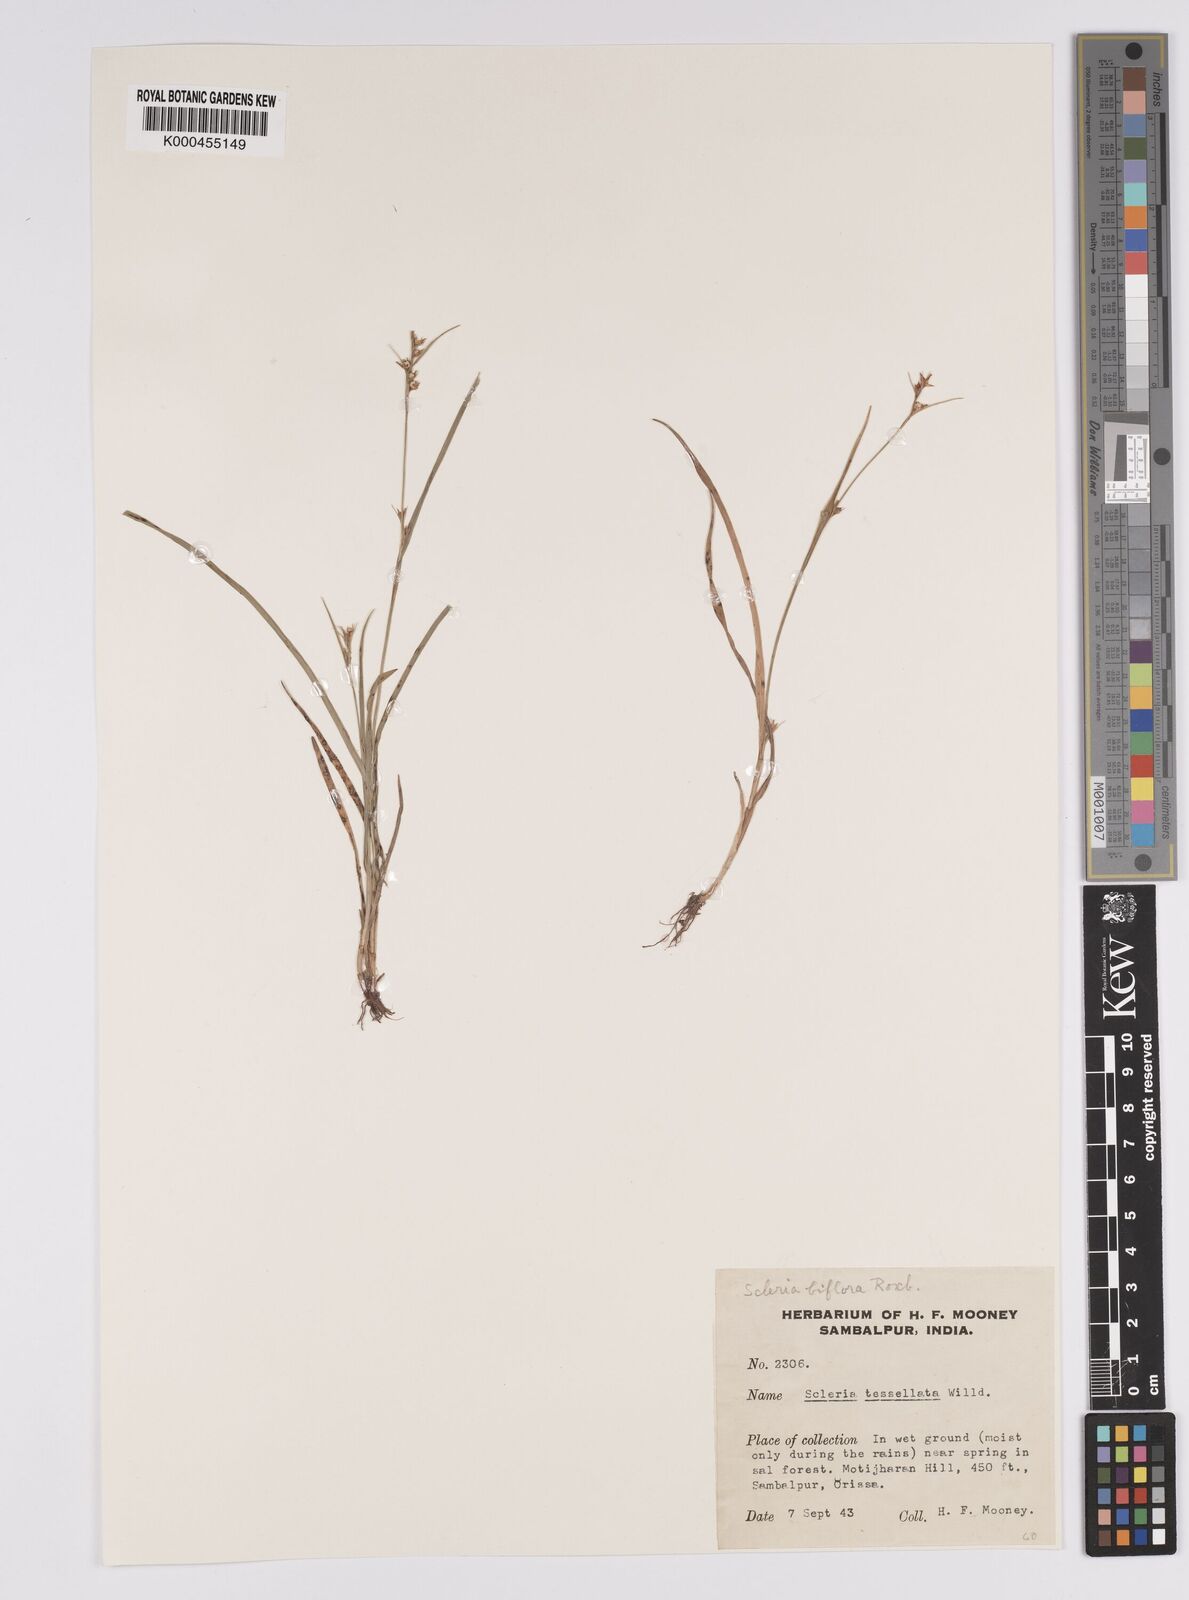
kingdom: Plantae
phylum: Tracheophyta
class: Liliopsida
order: Poales
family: Cyperaceae
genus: Scleria
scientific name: Scleria biflora
